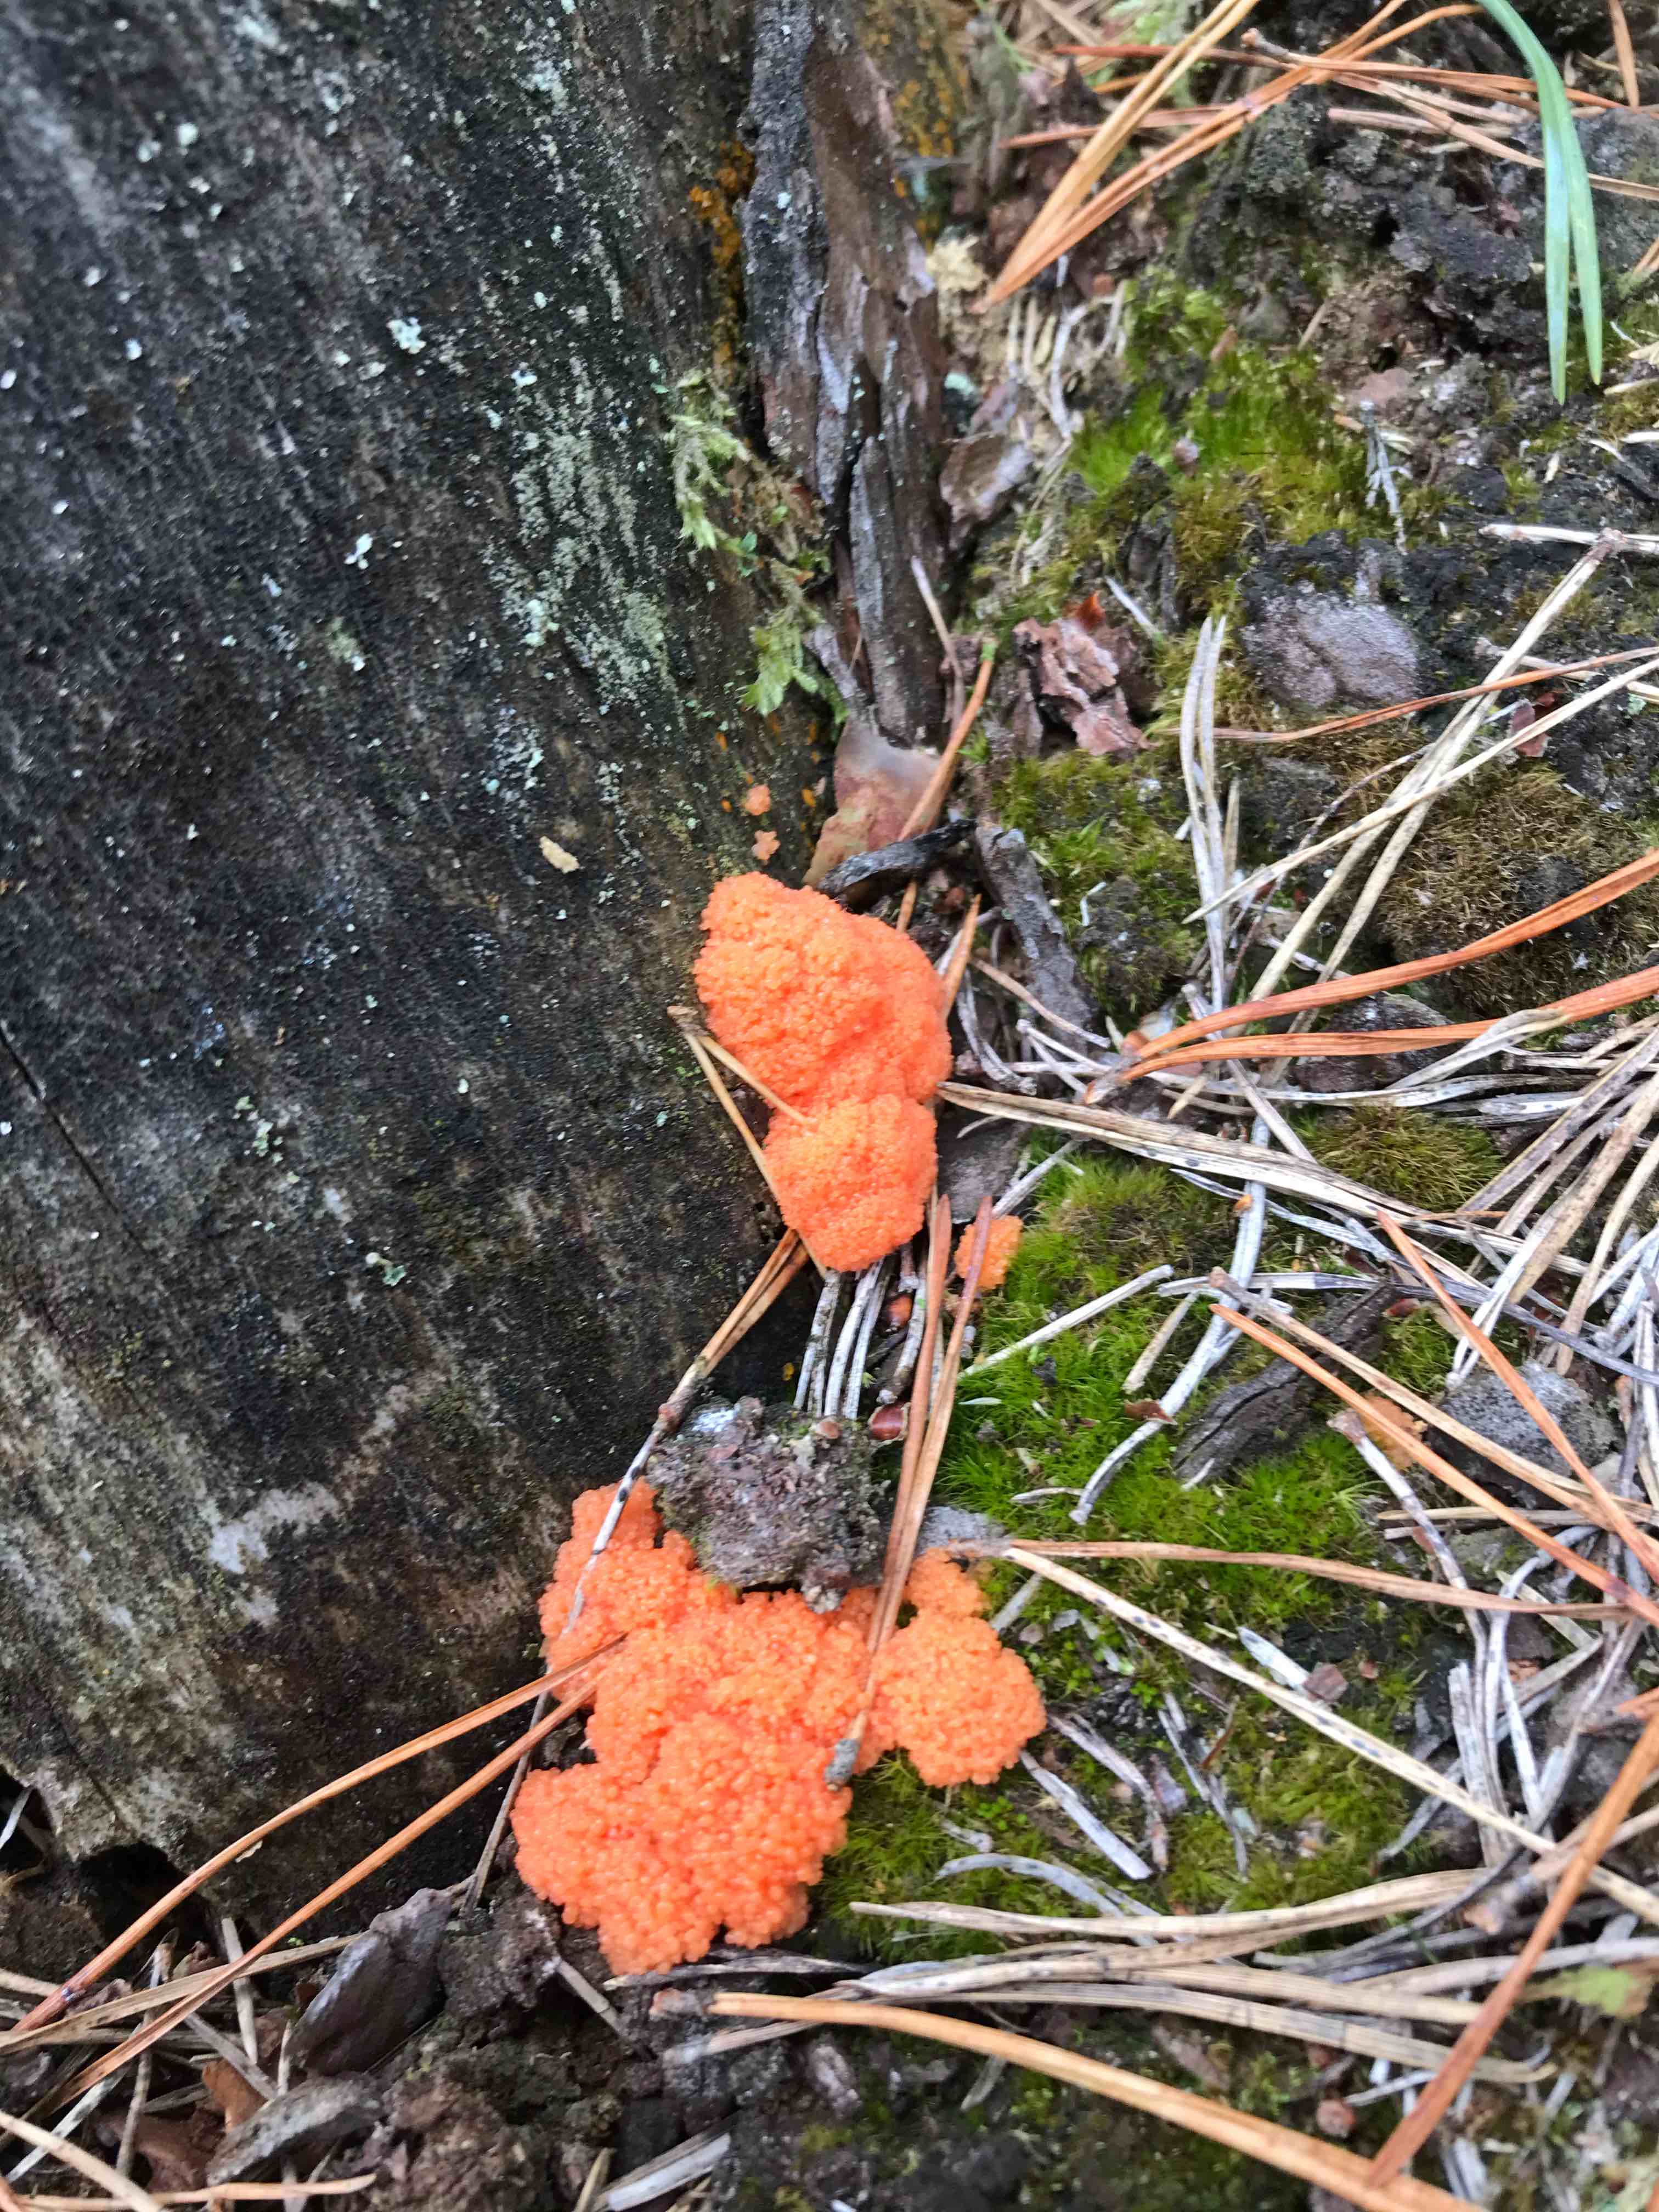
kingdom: Protozoa
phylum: Mycetozoa
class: Myxomycetes
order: Cribrariales
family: Tubiferaceae
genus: Tubifera
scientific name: Tubifera ferruginosa
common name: kanel-støvrør
